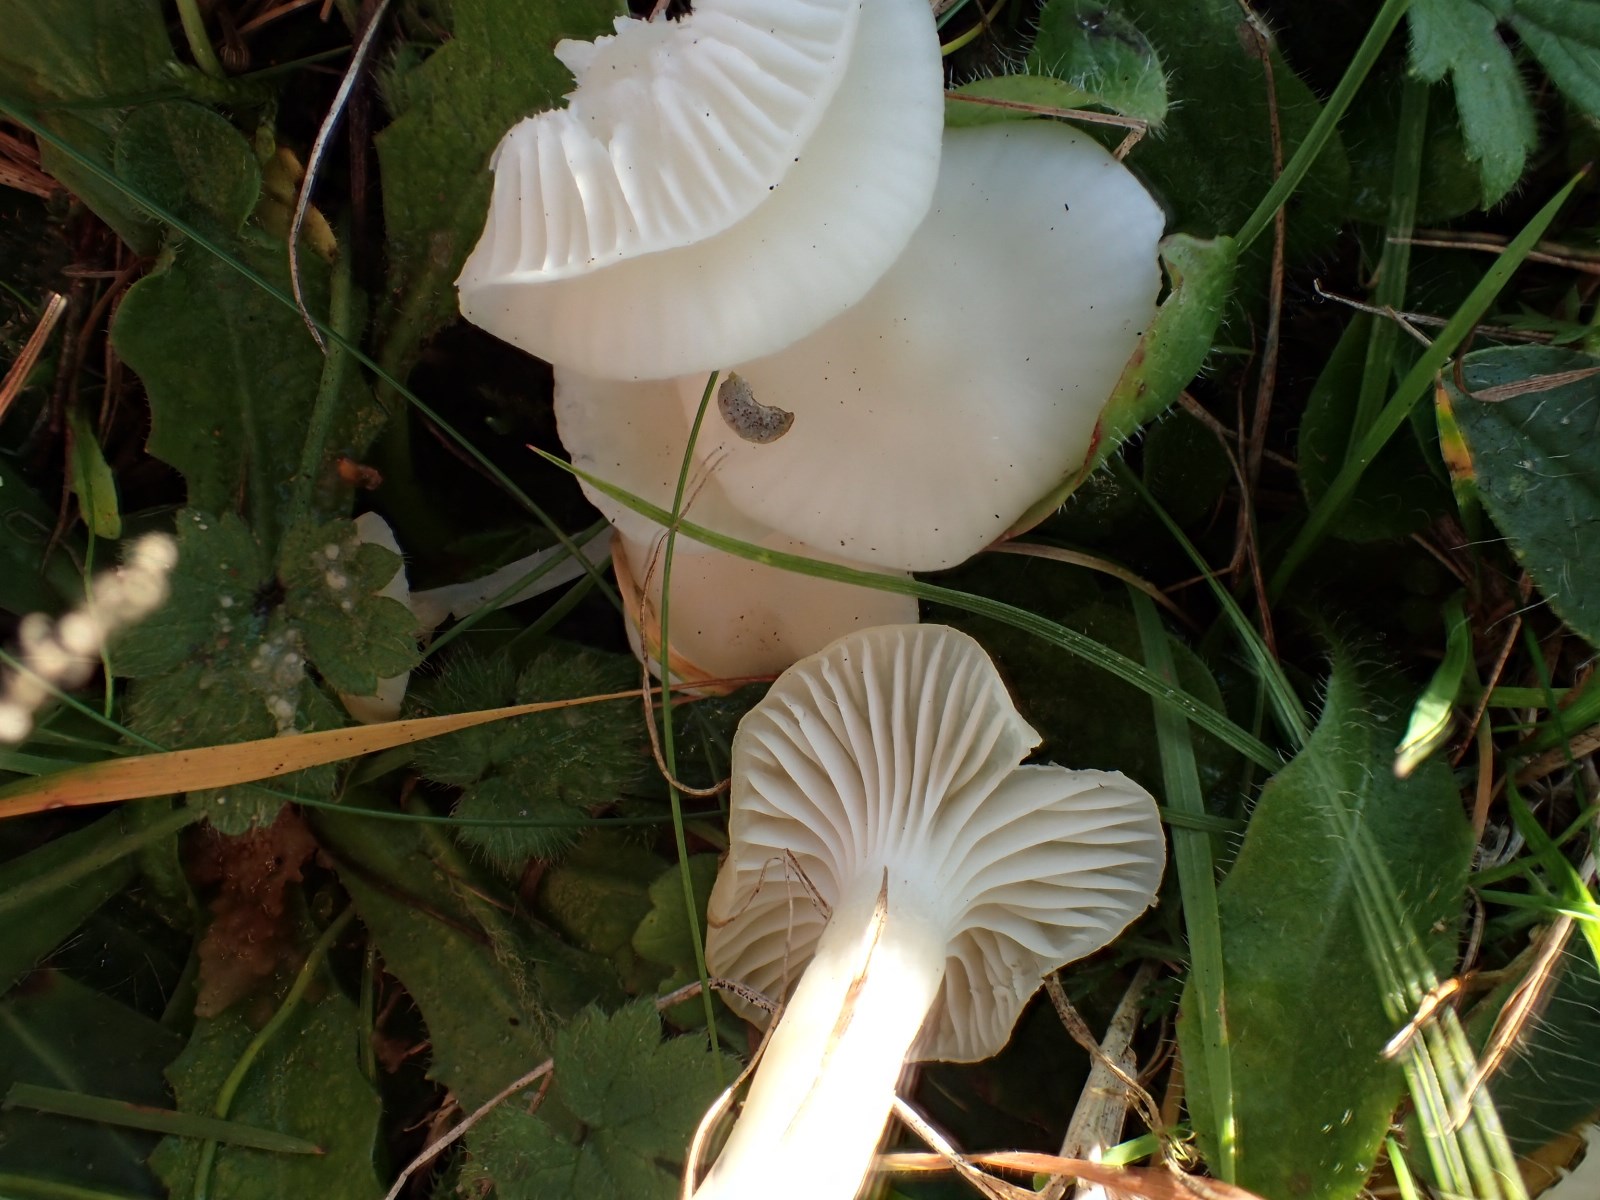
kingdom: Fungi
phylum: Basidiomycota
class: Agaricomycetes
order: Agaricales
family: Hygrophoraceae
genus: Cuphophyllus
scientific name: Cuphophyllus virgineus
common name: snehvid vokshat
